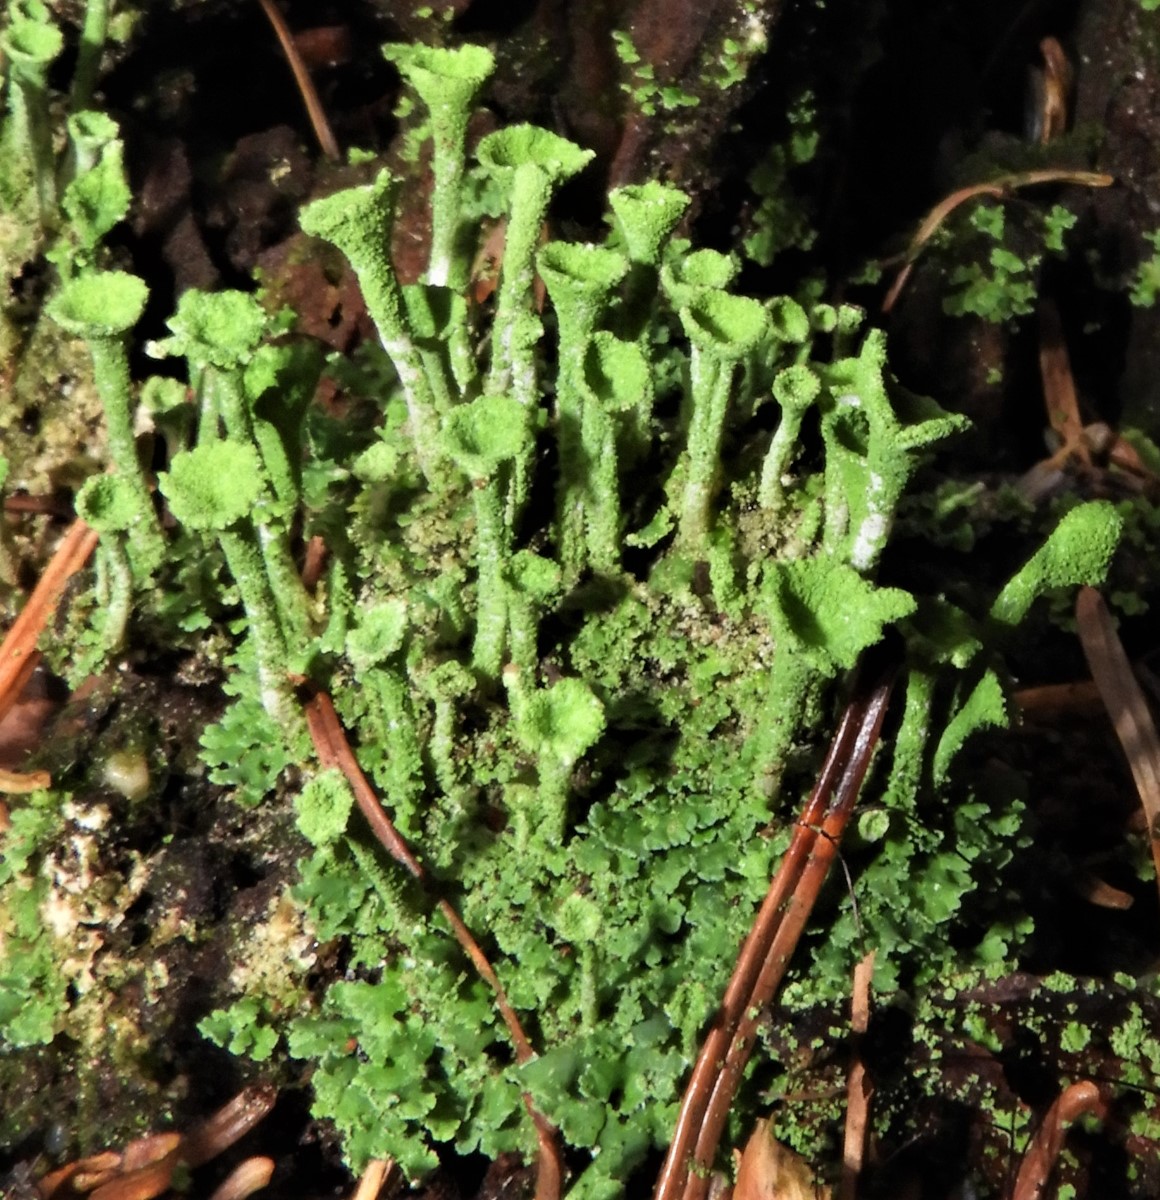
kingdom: Fungi
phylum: Ascomycota
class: Lecanoromycetes
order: Lecanorales
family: Cladoniaceae
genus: Cladonia
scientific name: Cladonia
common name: brungrøn bægerlav
